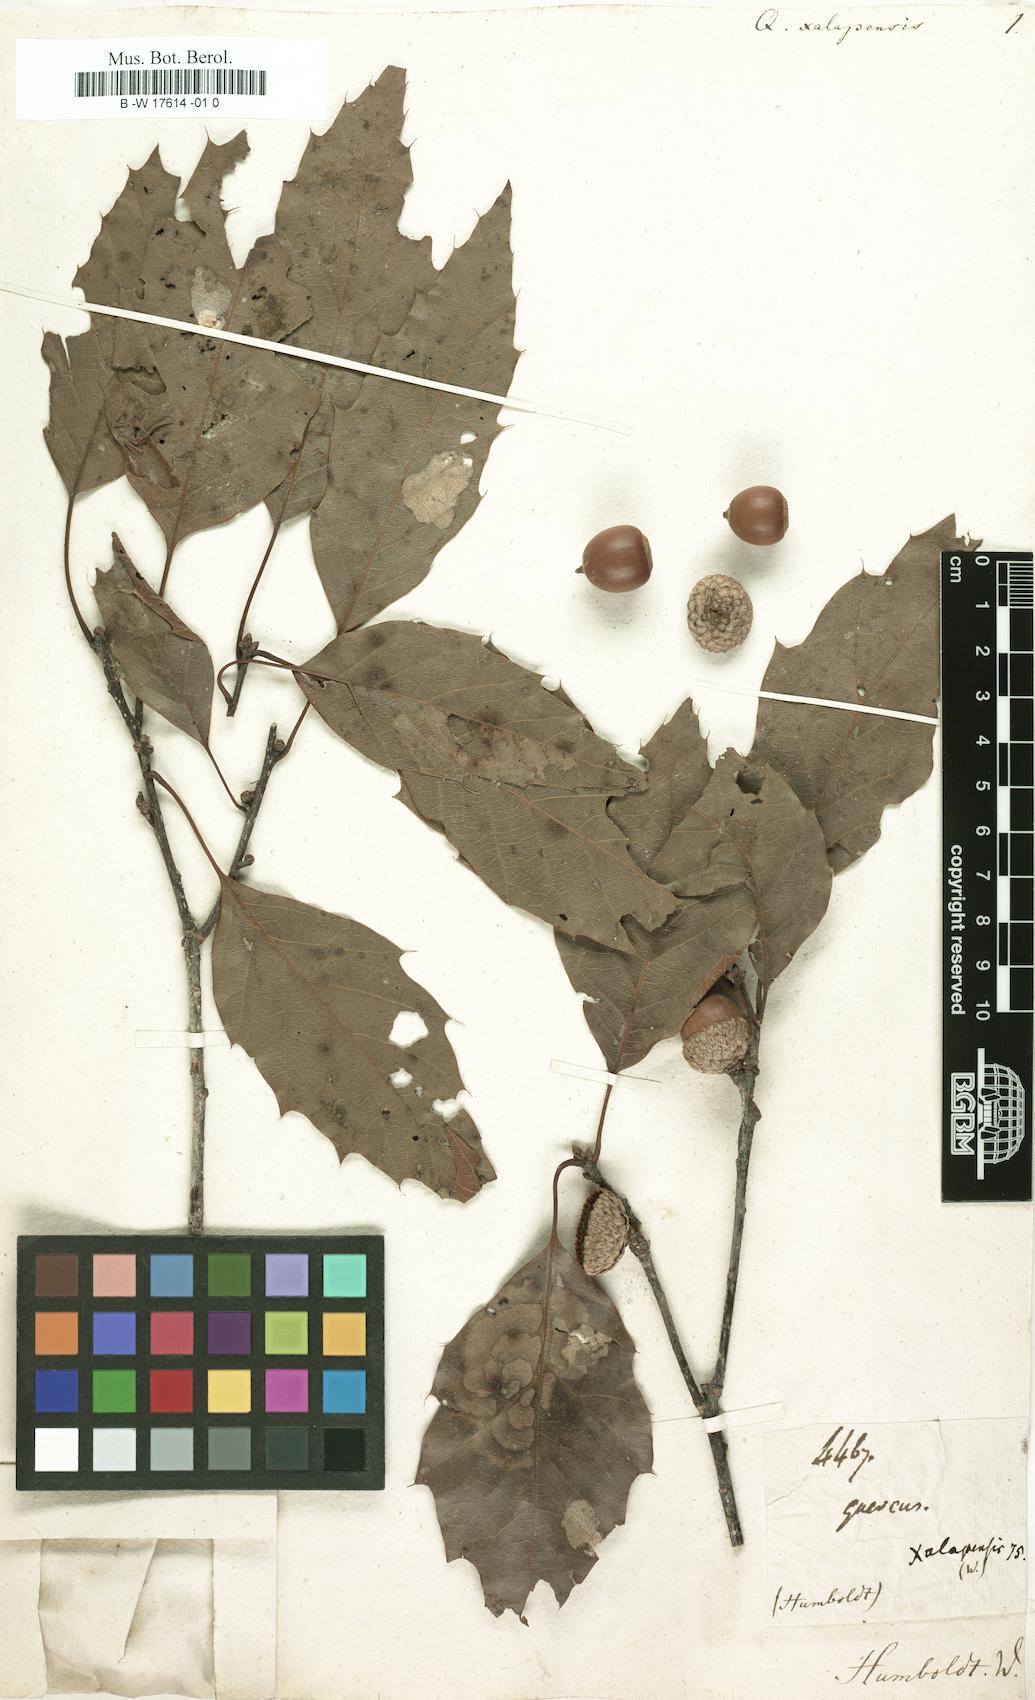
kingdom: Plantae
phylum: Tracheophyta
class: Magnoliopsida
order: Fagales
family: Fagaceae
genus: Quercus
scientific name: Quercus xalapensis
